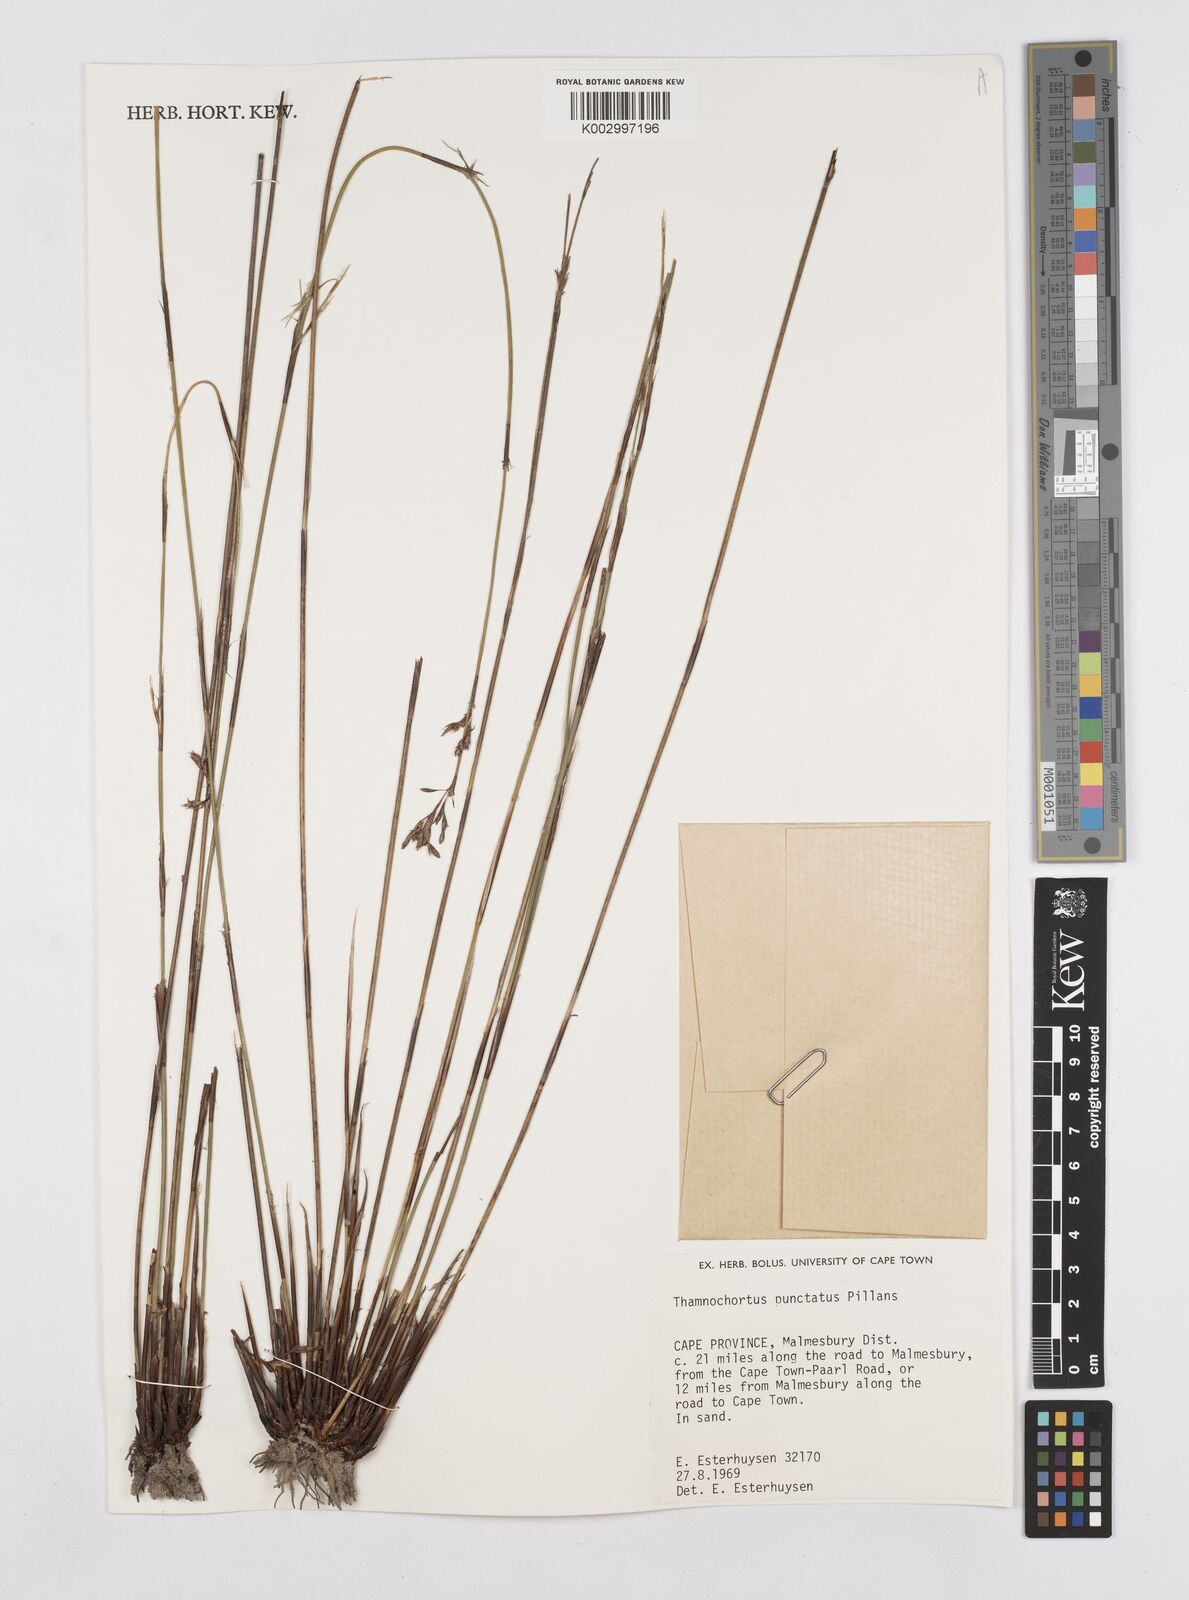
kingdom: Plantae
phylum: Tracheophyta
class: Liliopsida
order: Poales
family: Restionaceae
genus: Thamnochortus
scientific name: Thamnochortus punctatus
